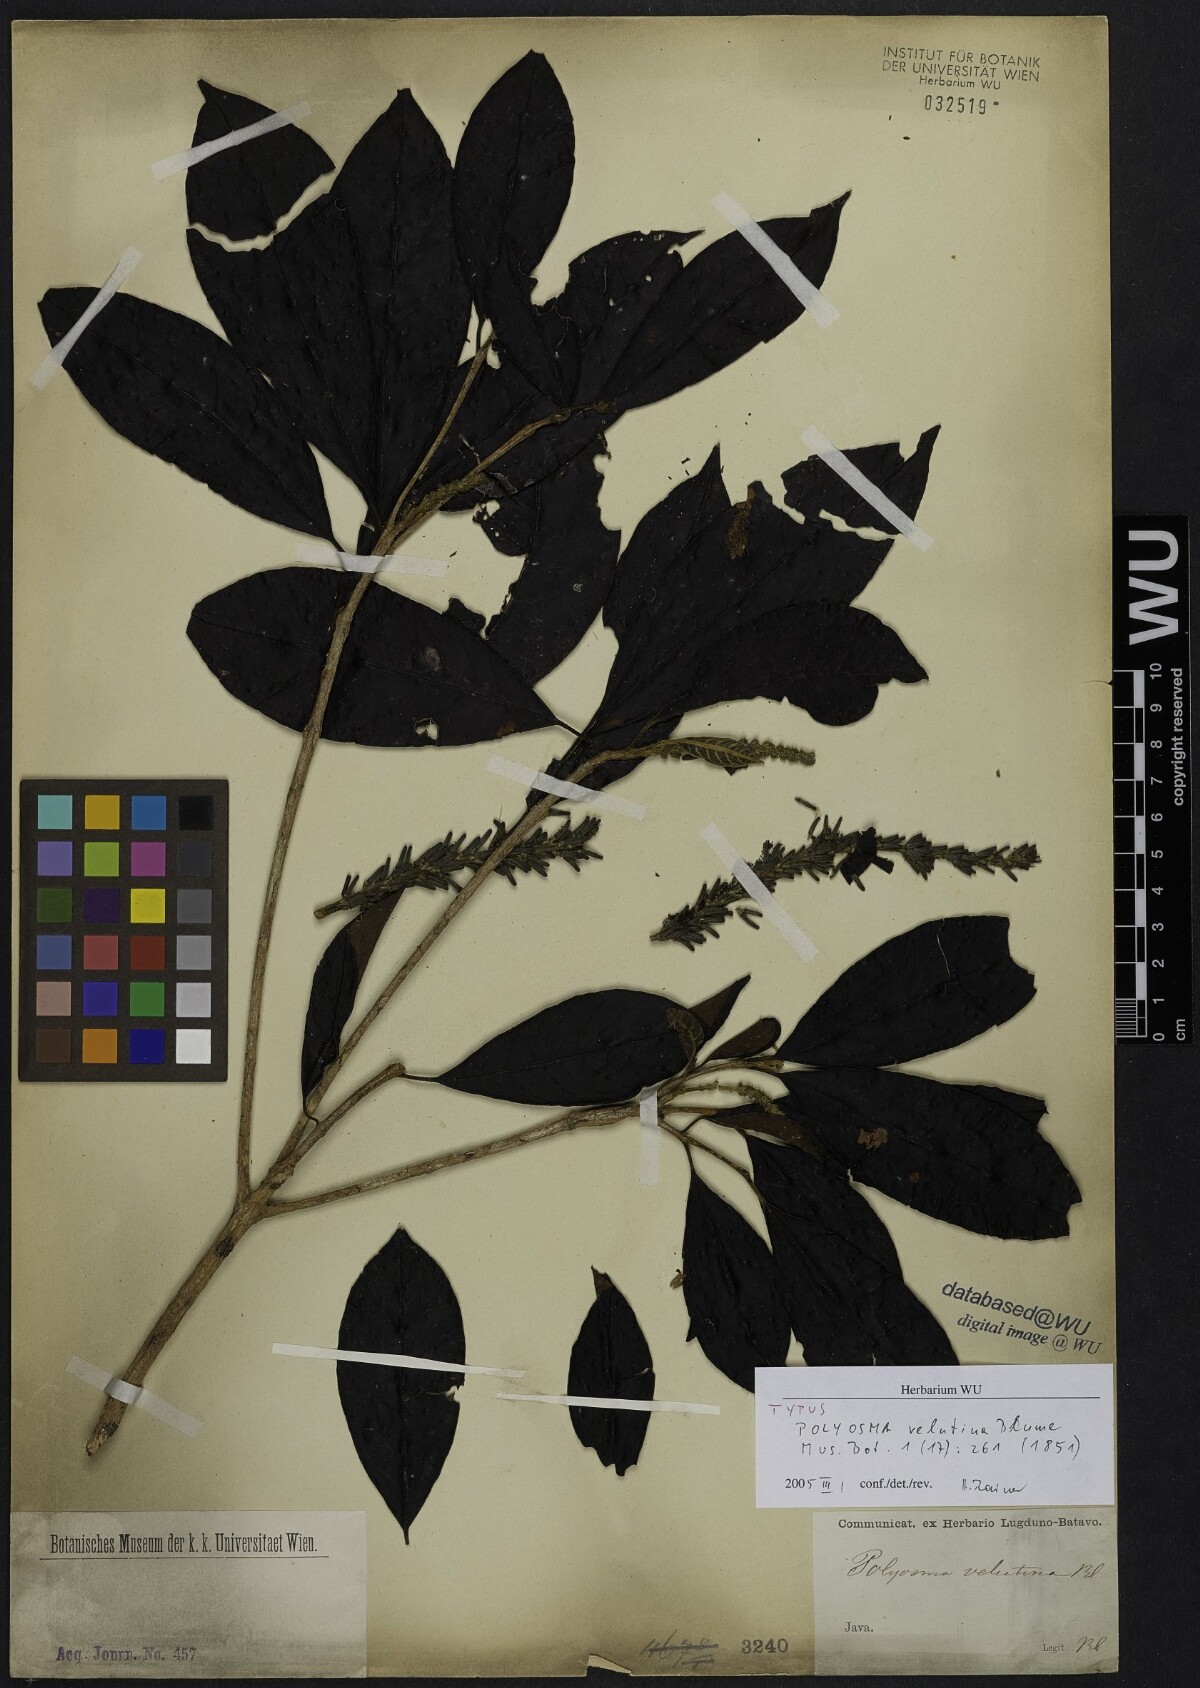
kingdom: Plantae
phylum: Tracheophyta
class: Magnoliopsida
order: Escalloniales
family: Escalloniaceae
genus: Polyosma
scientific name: Polyosma integrifolia
